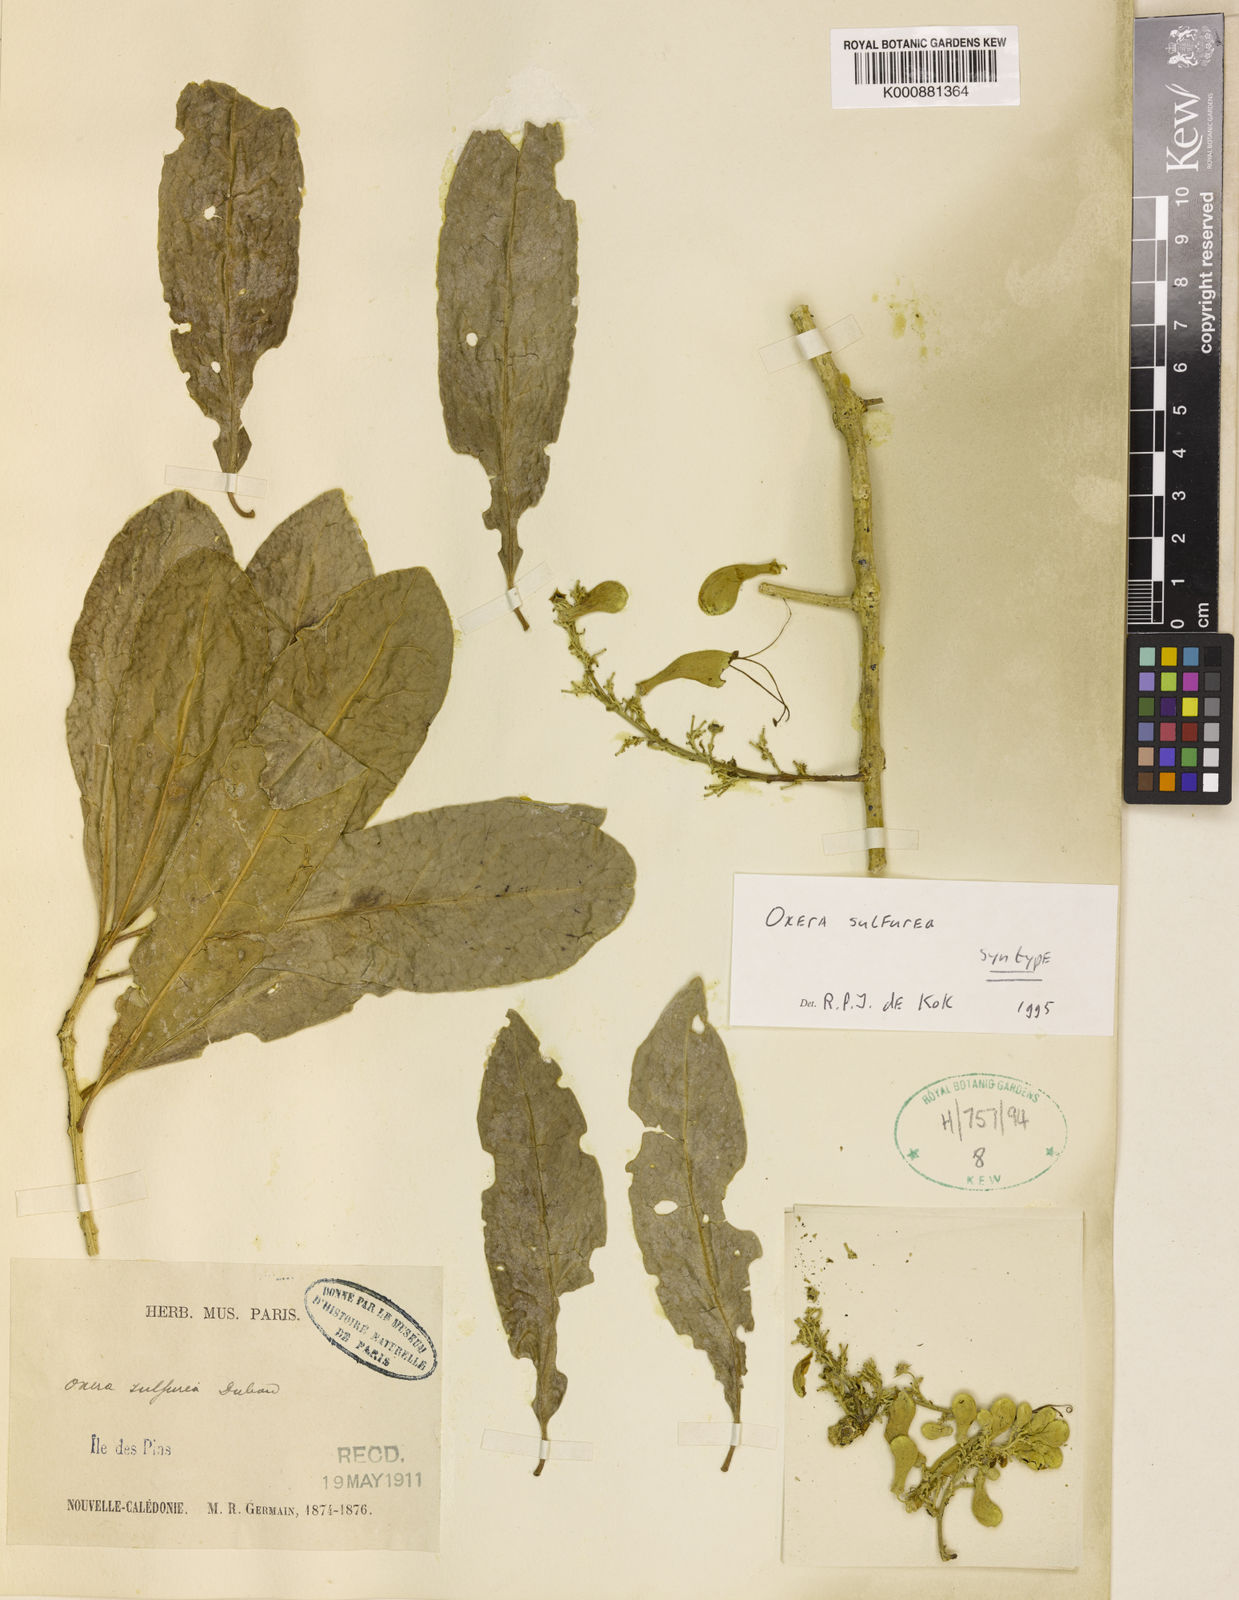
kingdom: Plantae
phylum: Tracheophyta
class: Magnoliopsida
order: Lamiales
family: Lamiaceae
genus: Oxera
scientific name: Oxera sulfurea
